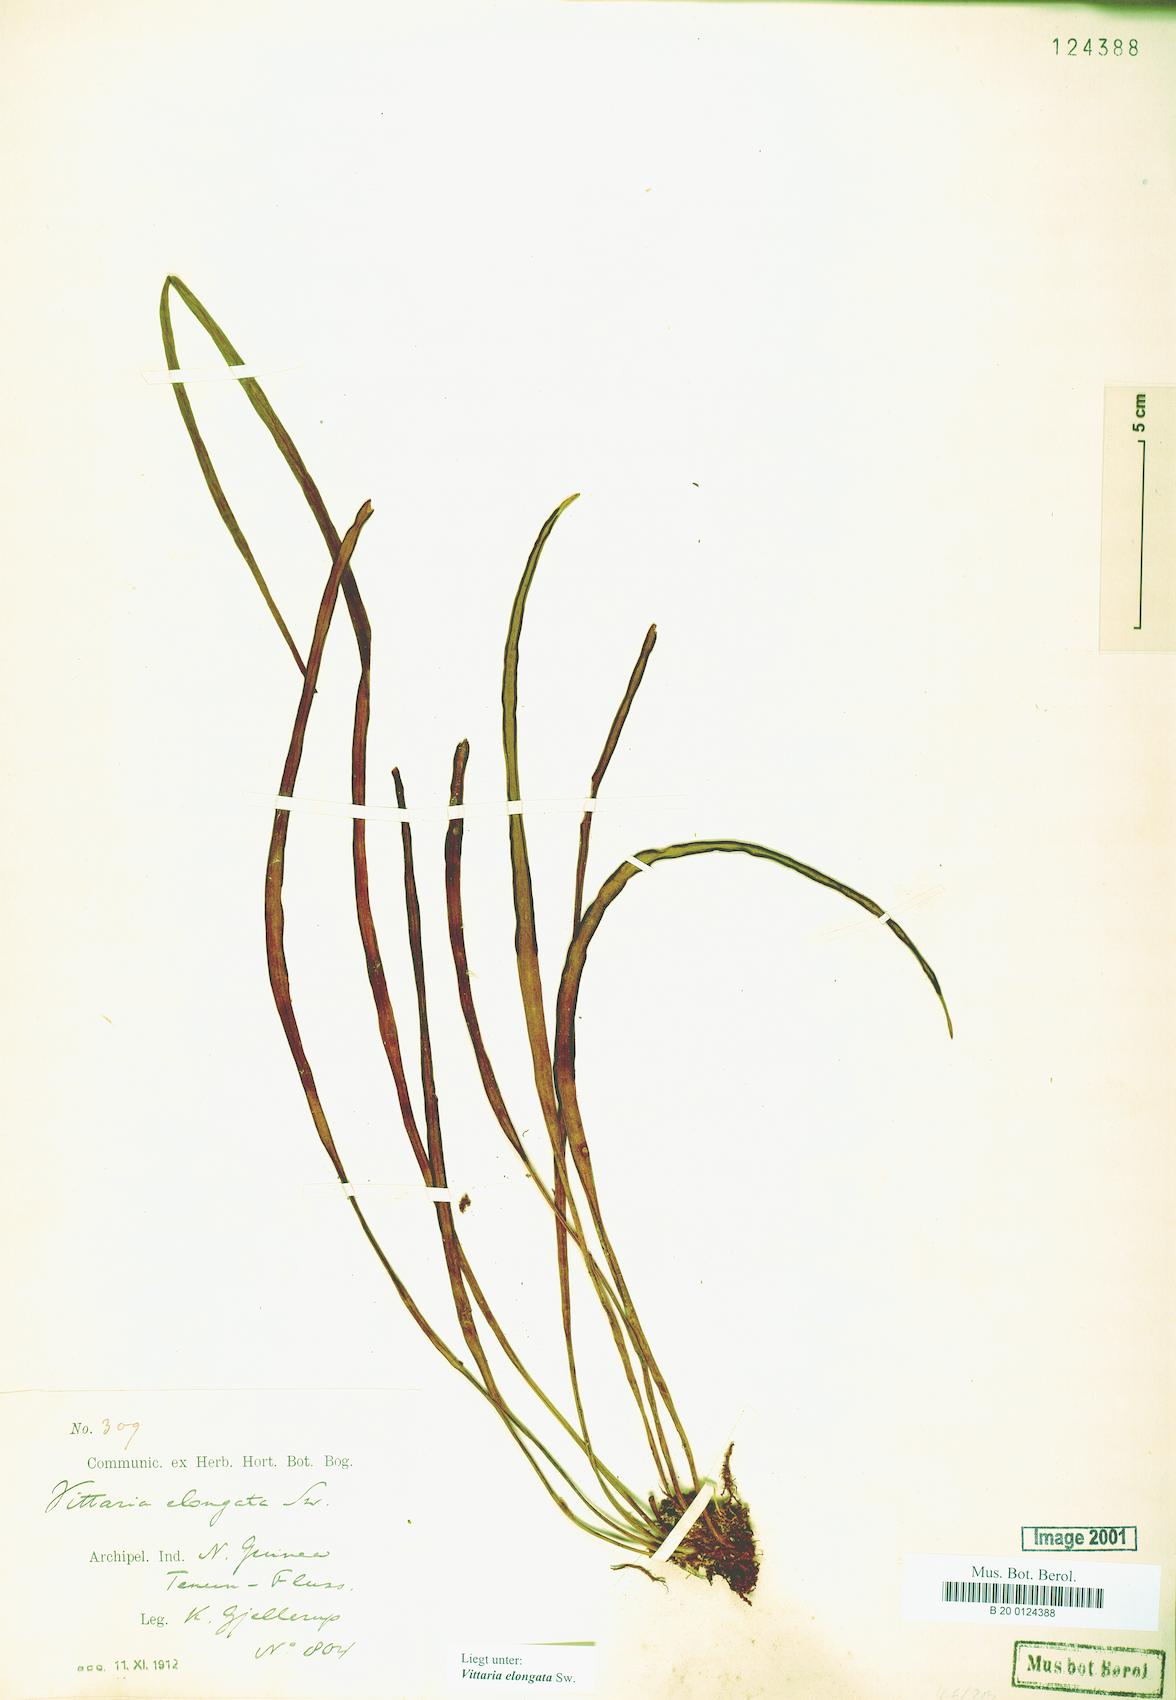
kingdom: Plantae
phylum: Tracheophyta
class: Polypodiopsida
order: Polypodiales
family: Pteridaceae
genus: Haplopteris
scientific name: Haplopteris elongata
